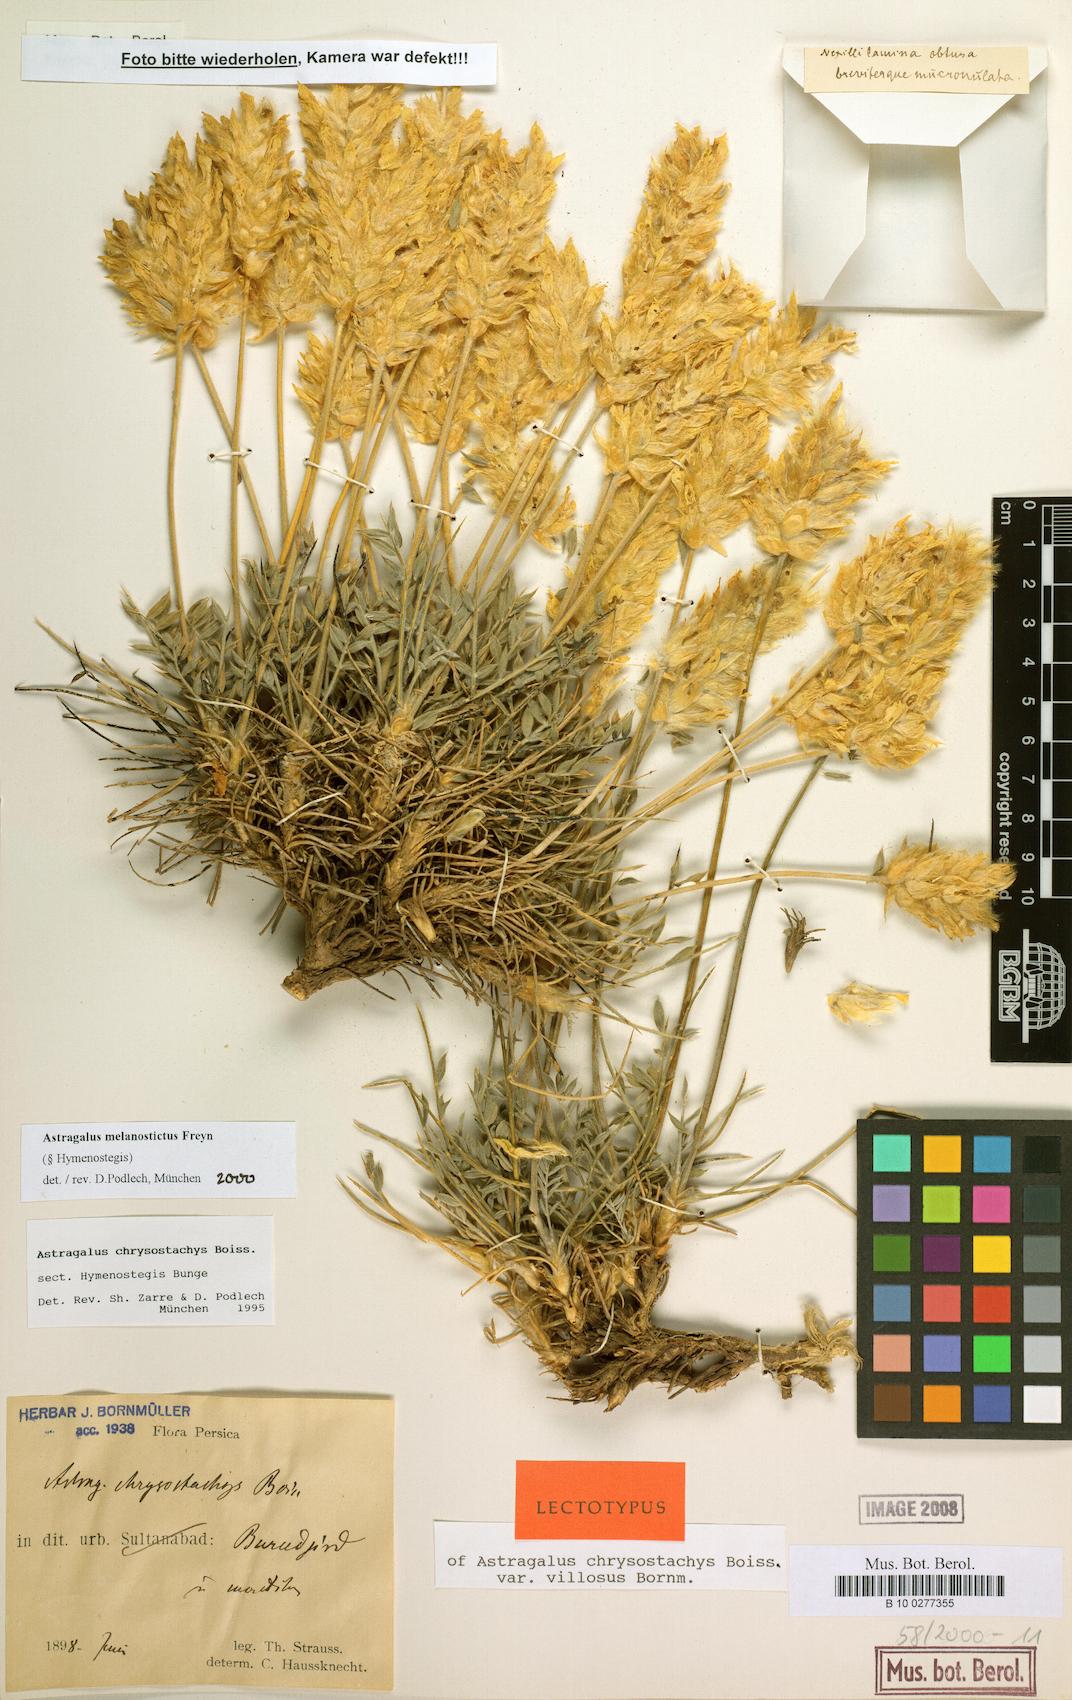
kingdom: Plantae
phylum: Tracheophyta
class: Magnoliopsida
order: Fabales
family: Fabaceae
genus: Astragalus
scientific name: Astragalus melanostictus
